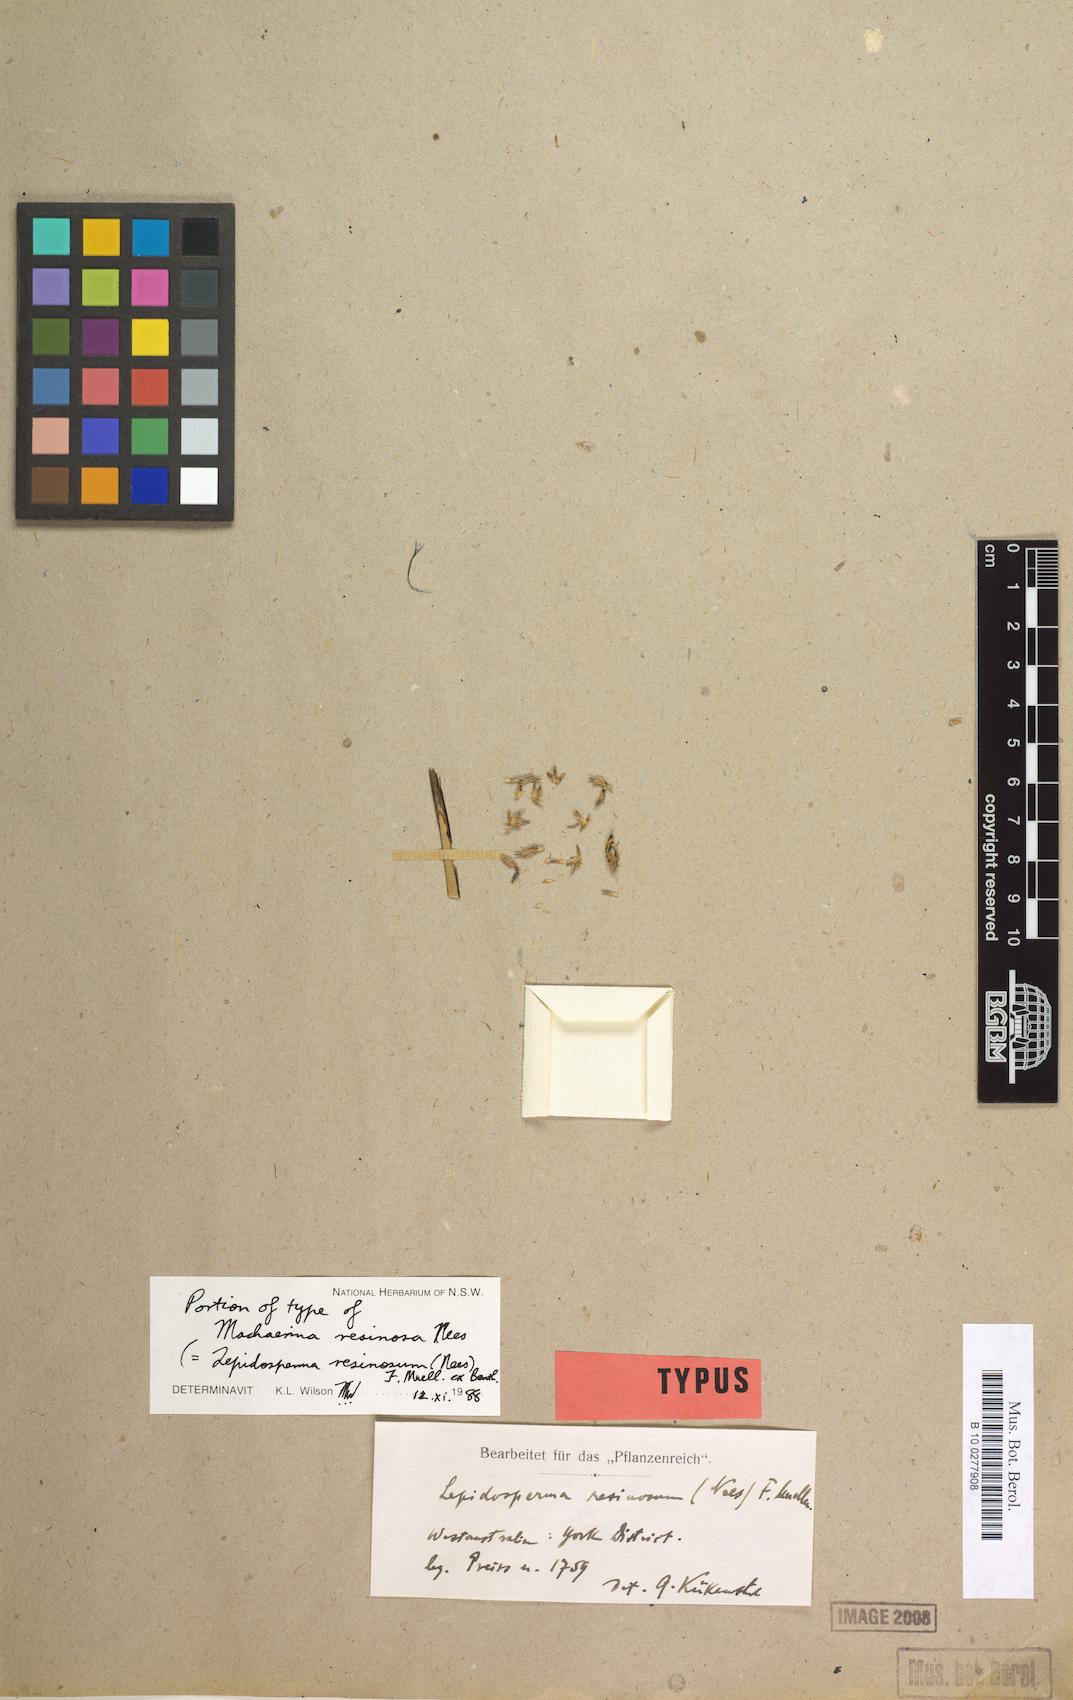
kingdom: Plantae
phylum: Tracheophyta
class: Liliopsida
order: Poales
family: Cyperaceae
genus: Lepidosperma
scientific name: Lepidosperma resinosum
